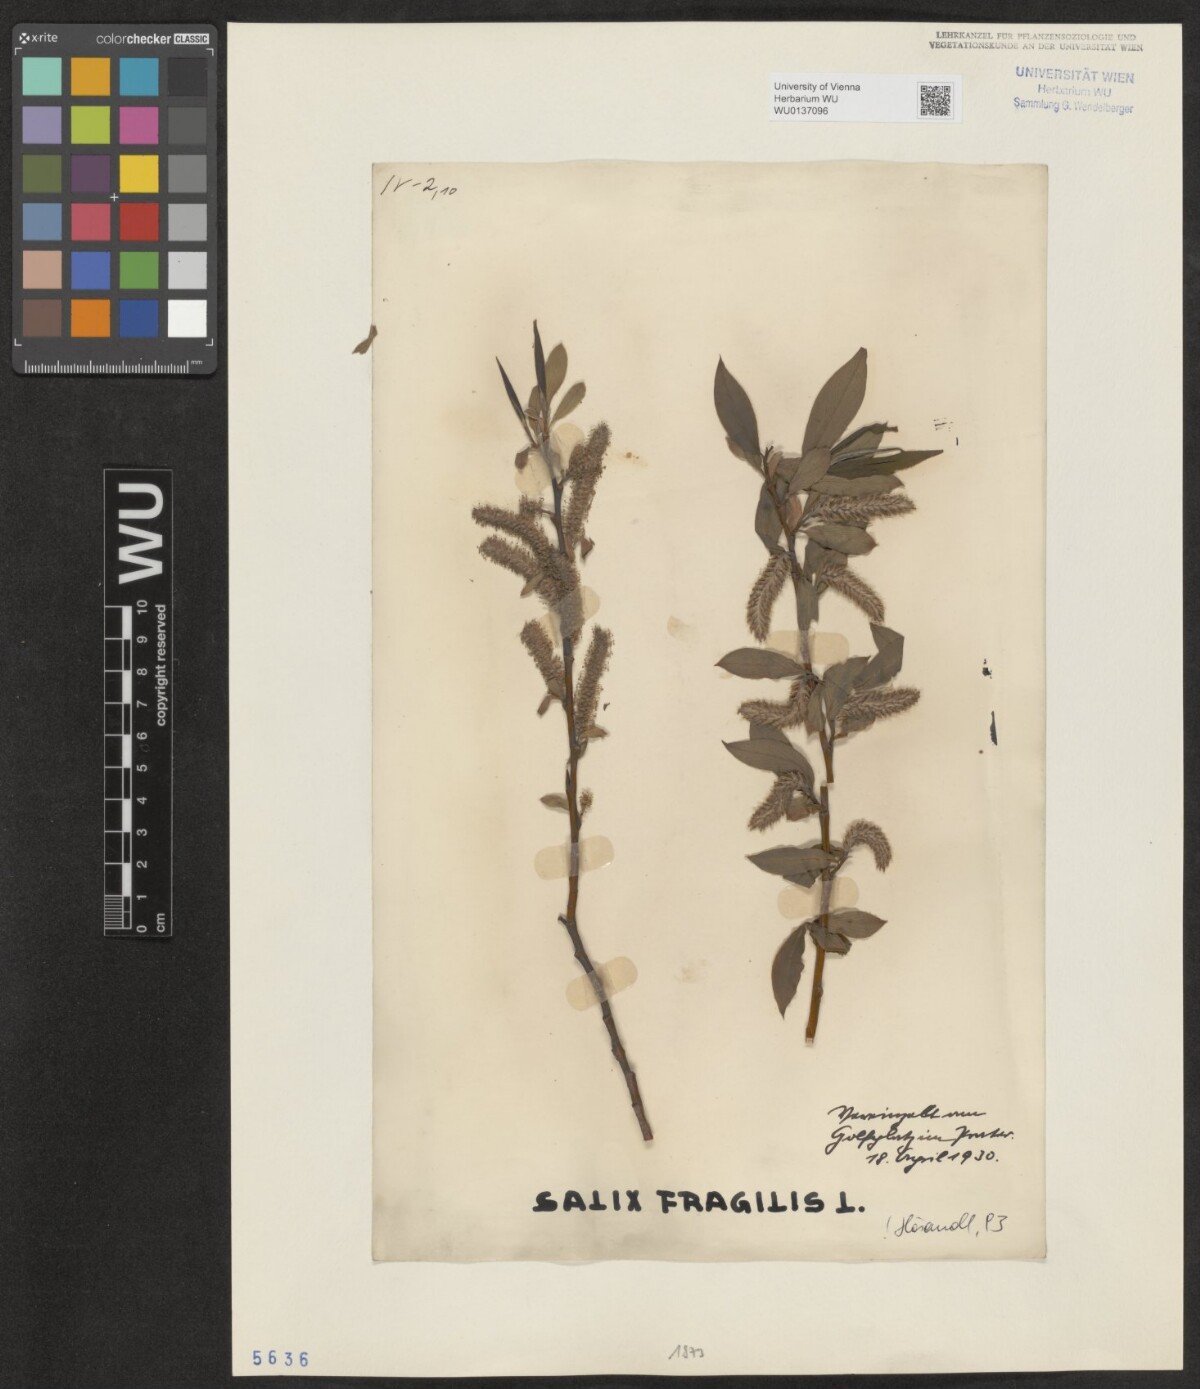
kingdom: Plantae
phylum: Tracheophyta
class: Magnoliopsida
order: Malpighiales
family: Salicaceae
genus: Salix
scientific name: Salix fragilis
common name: Crack willow
